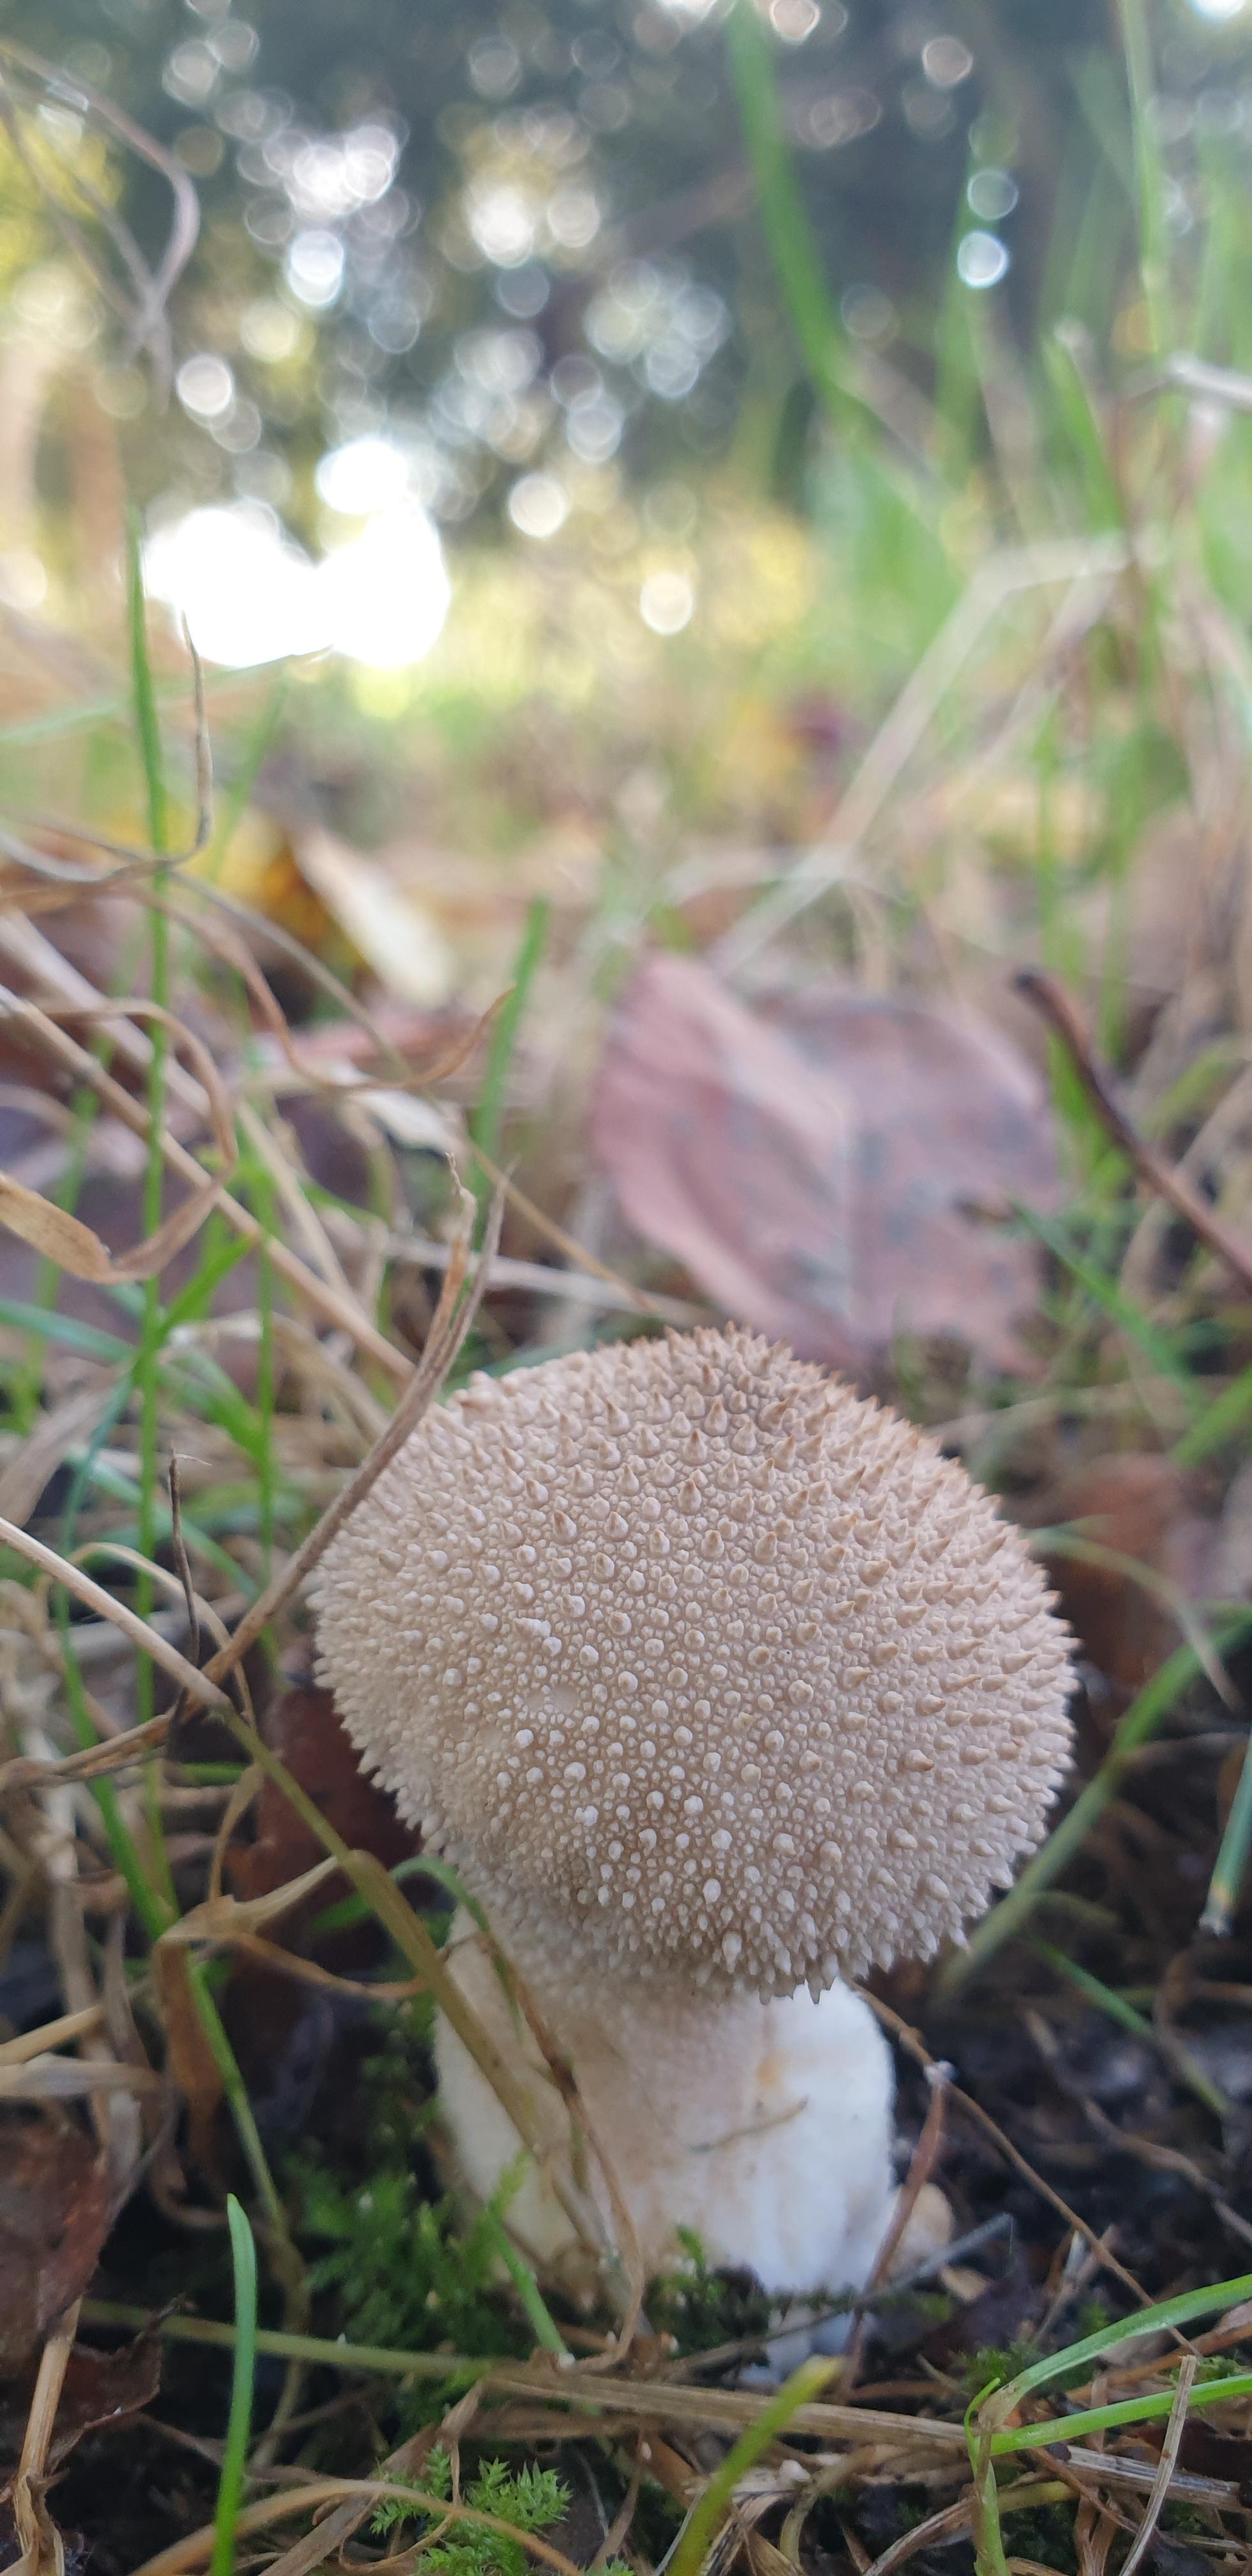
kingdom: Fungi
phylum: Basidiomycota
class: Agaricomycetes
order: Agaricales
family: Lycoperdaceae
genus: Lycoperdon
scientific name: Lycoperdon perlatum
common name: krystal-støvbold
